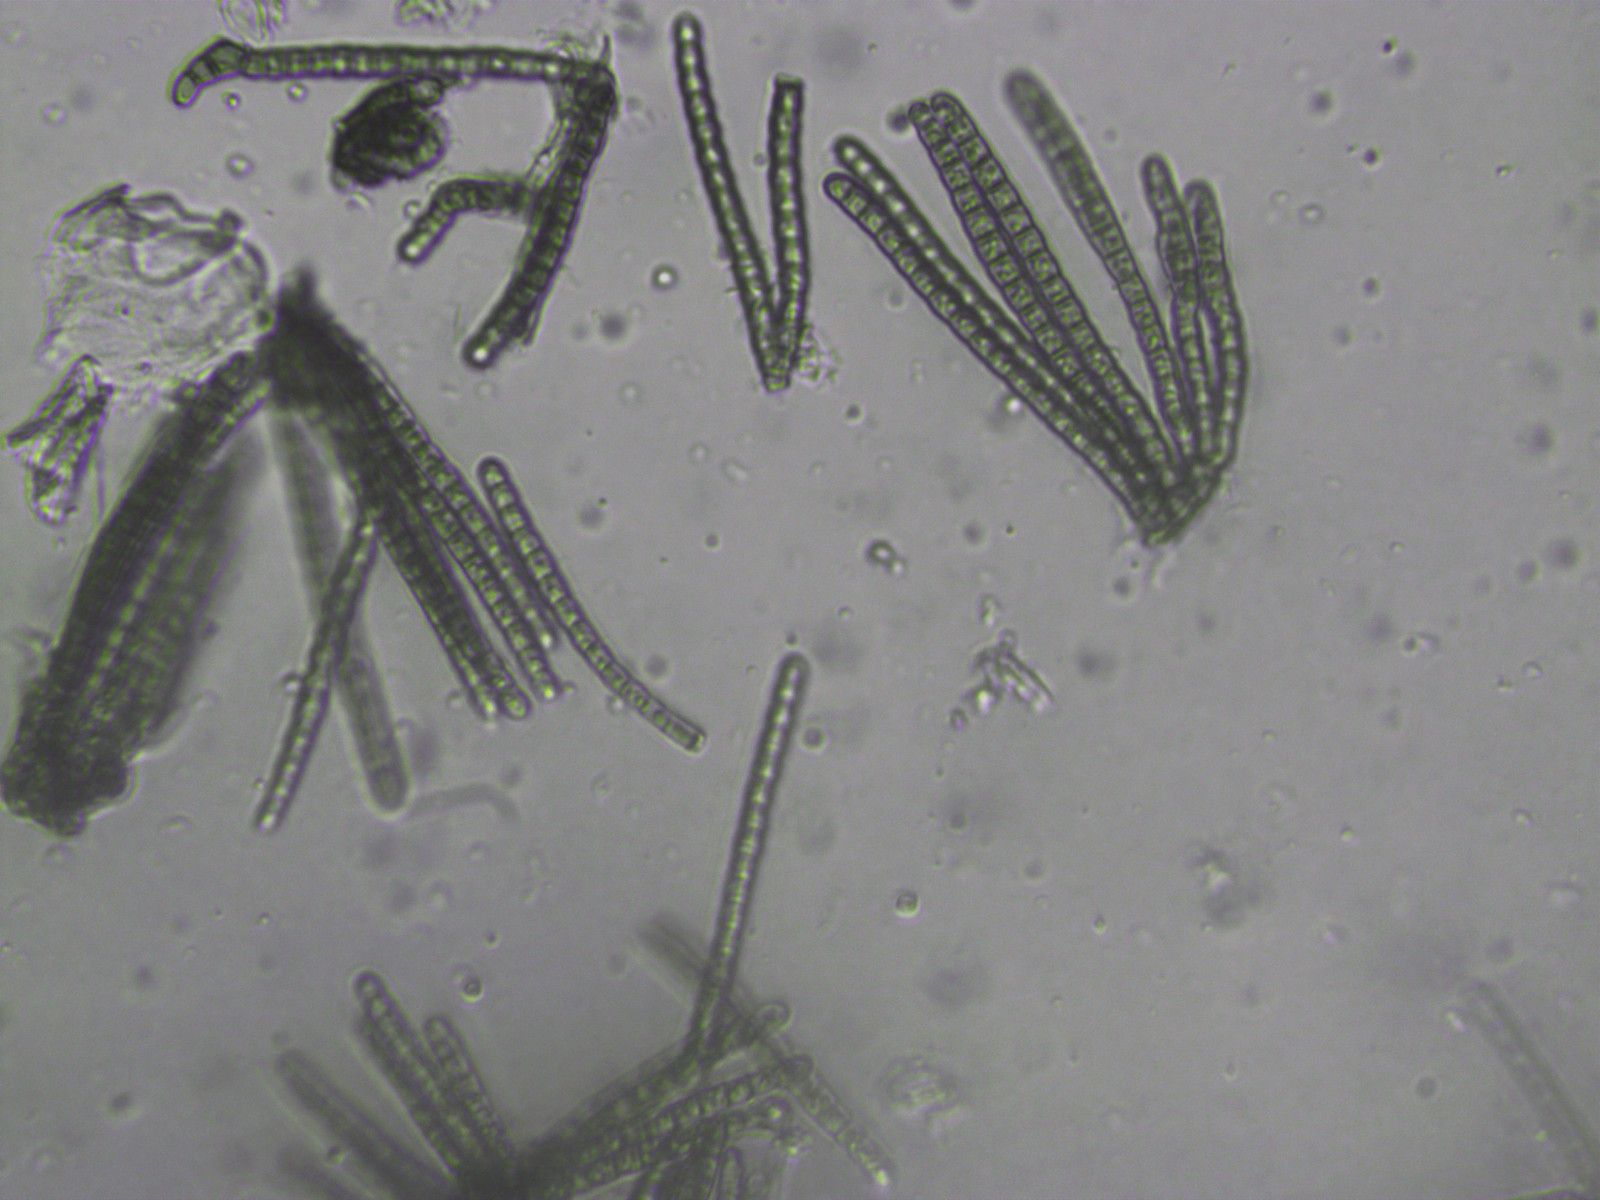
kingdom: Fungi
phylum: Ascomycota
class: Dothideomycetes
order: Pleosporales
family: Cryptocoryneaceae
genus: Cryptocoryneum
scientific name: Cryptocoryneum condensatum
